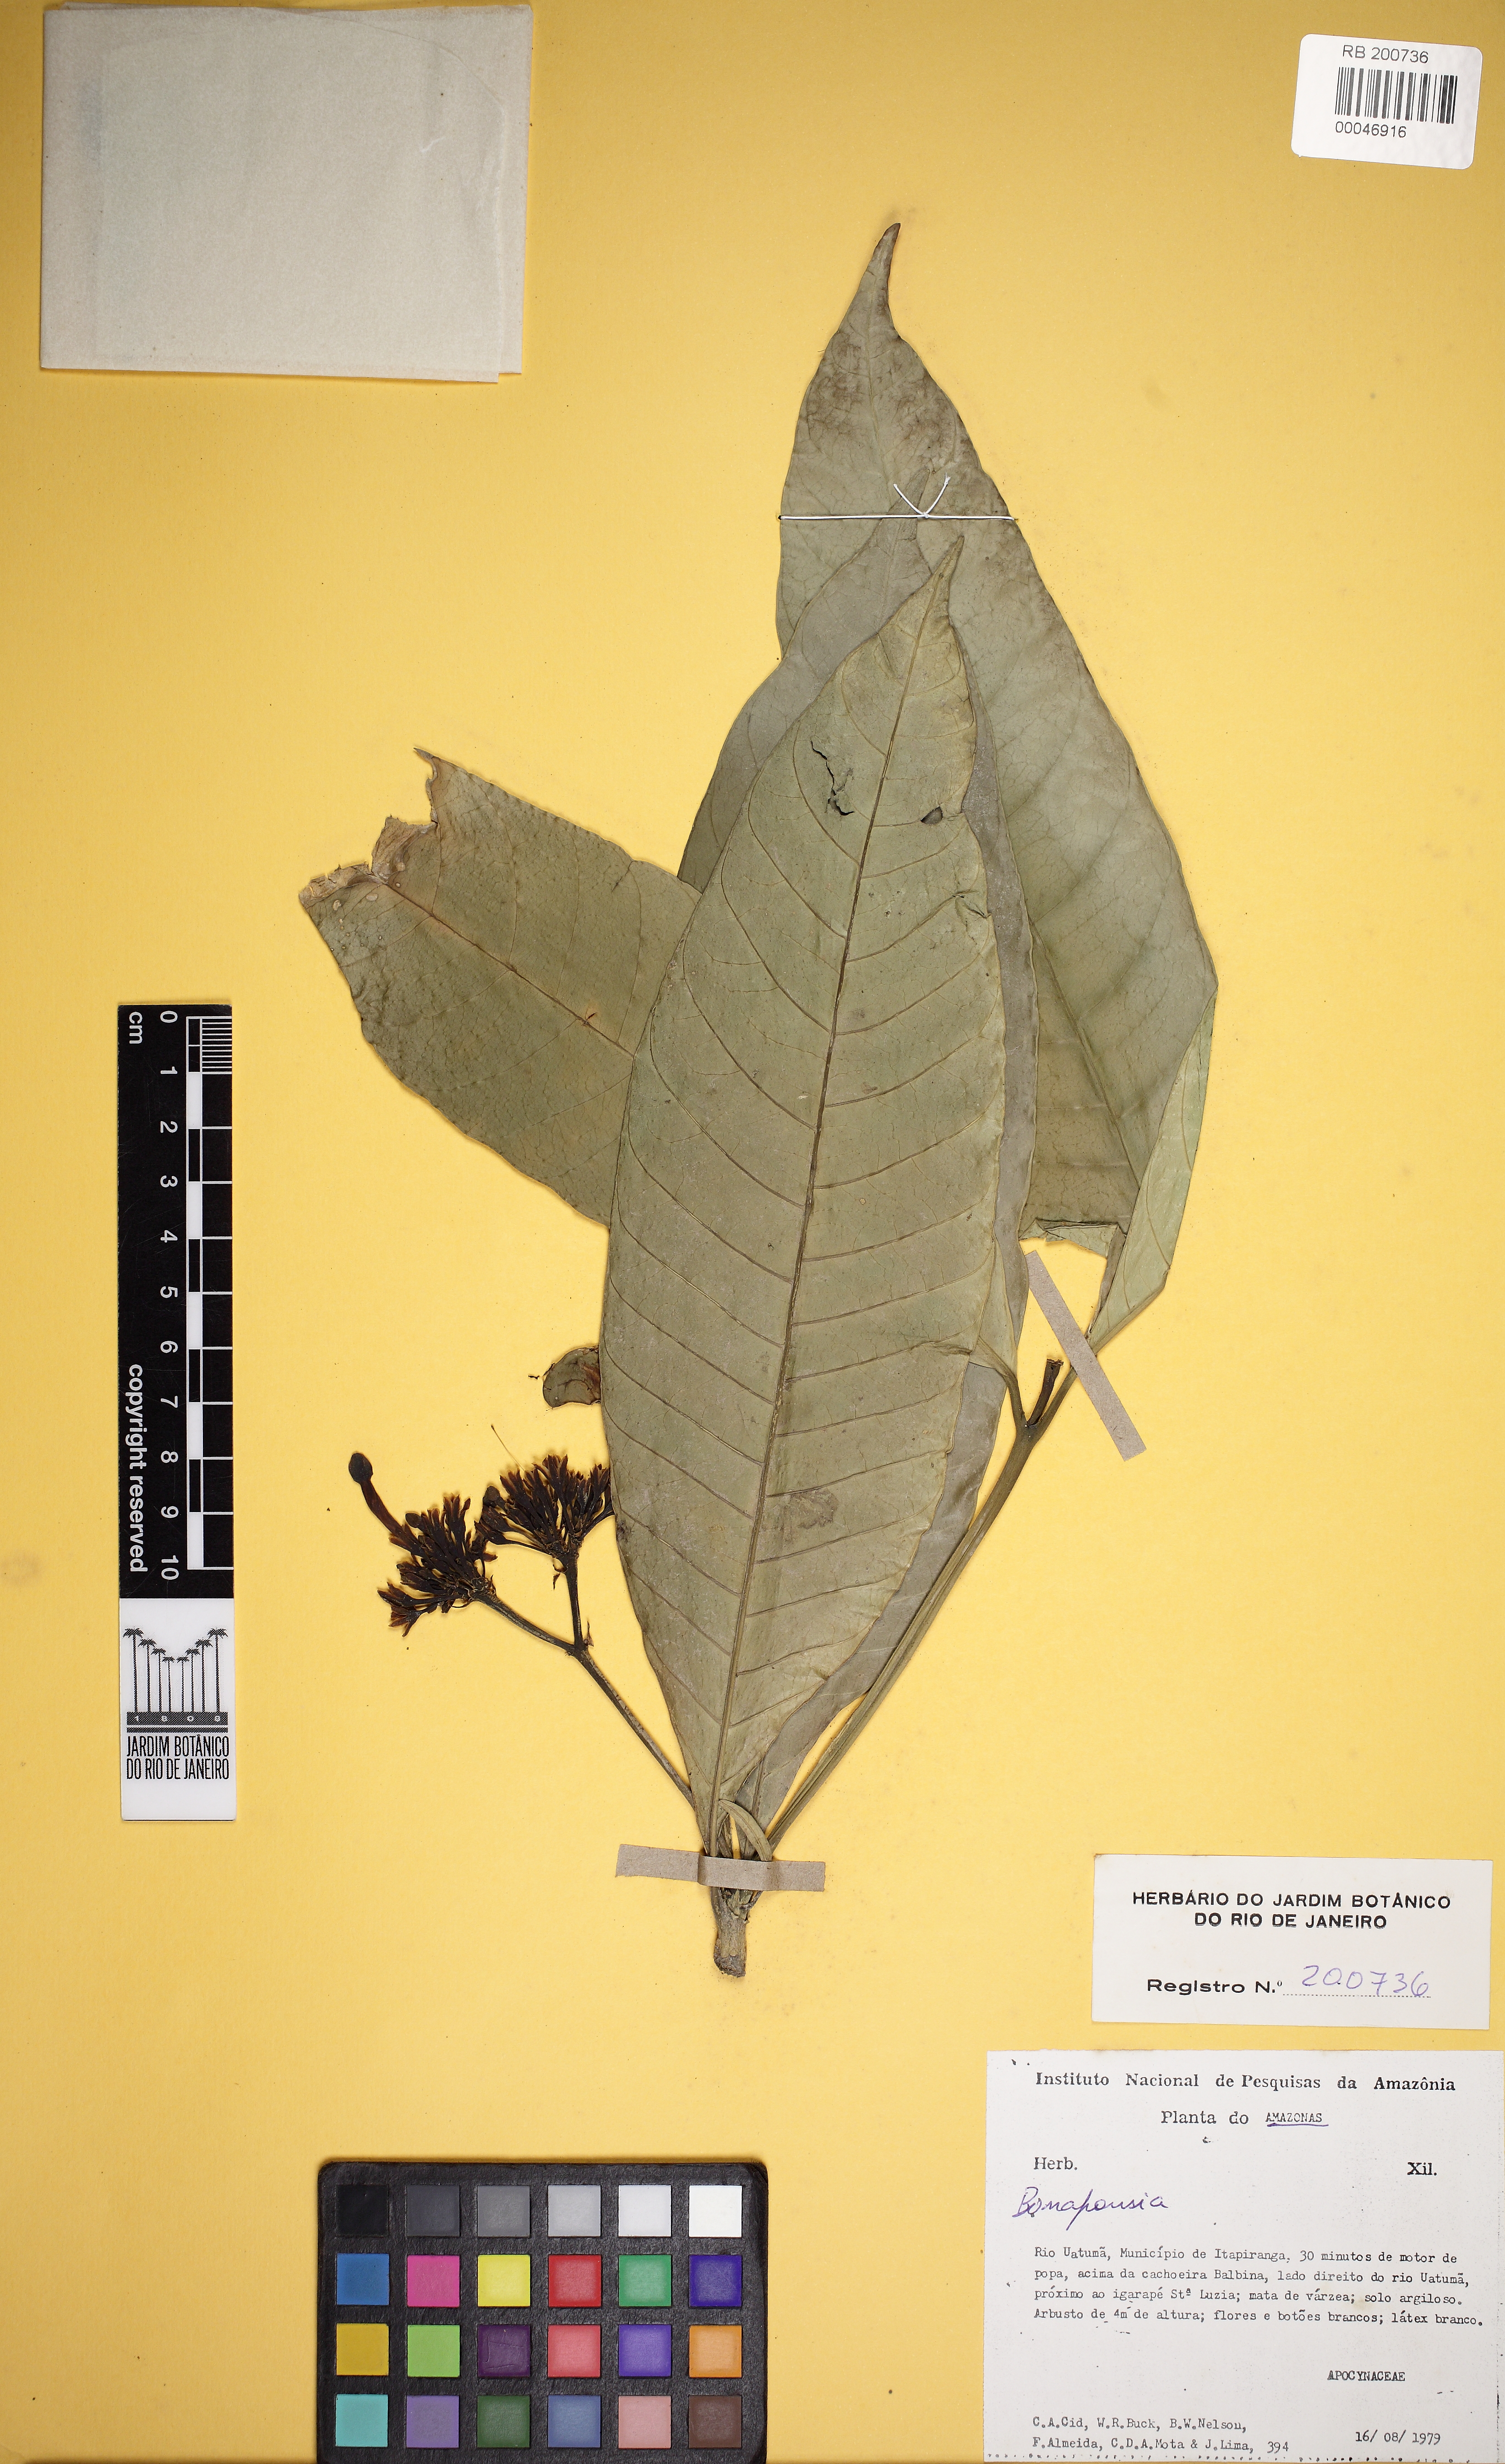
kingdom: Plantae
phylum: Tracheophyta
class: Magnoliopsida
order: Gentianales
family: Apocynaceae
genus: Tabernaemontana
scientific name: Tabernaemontana
